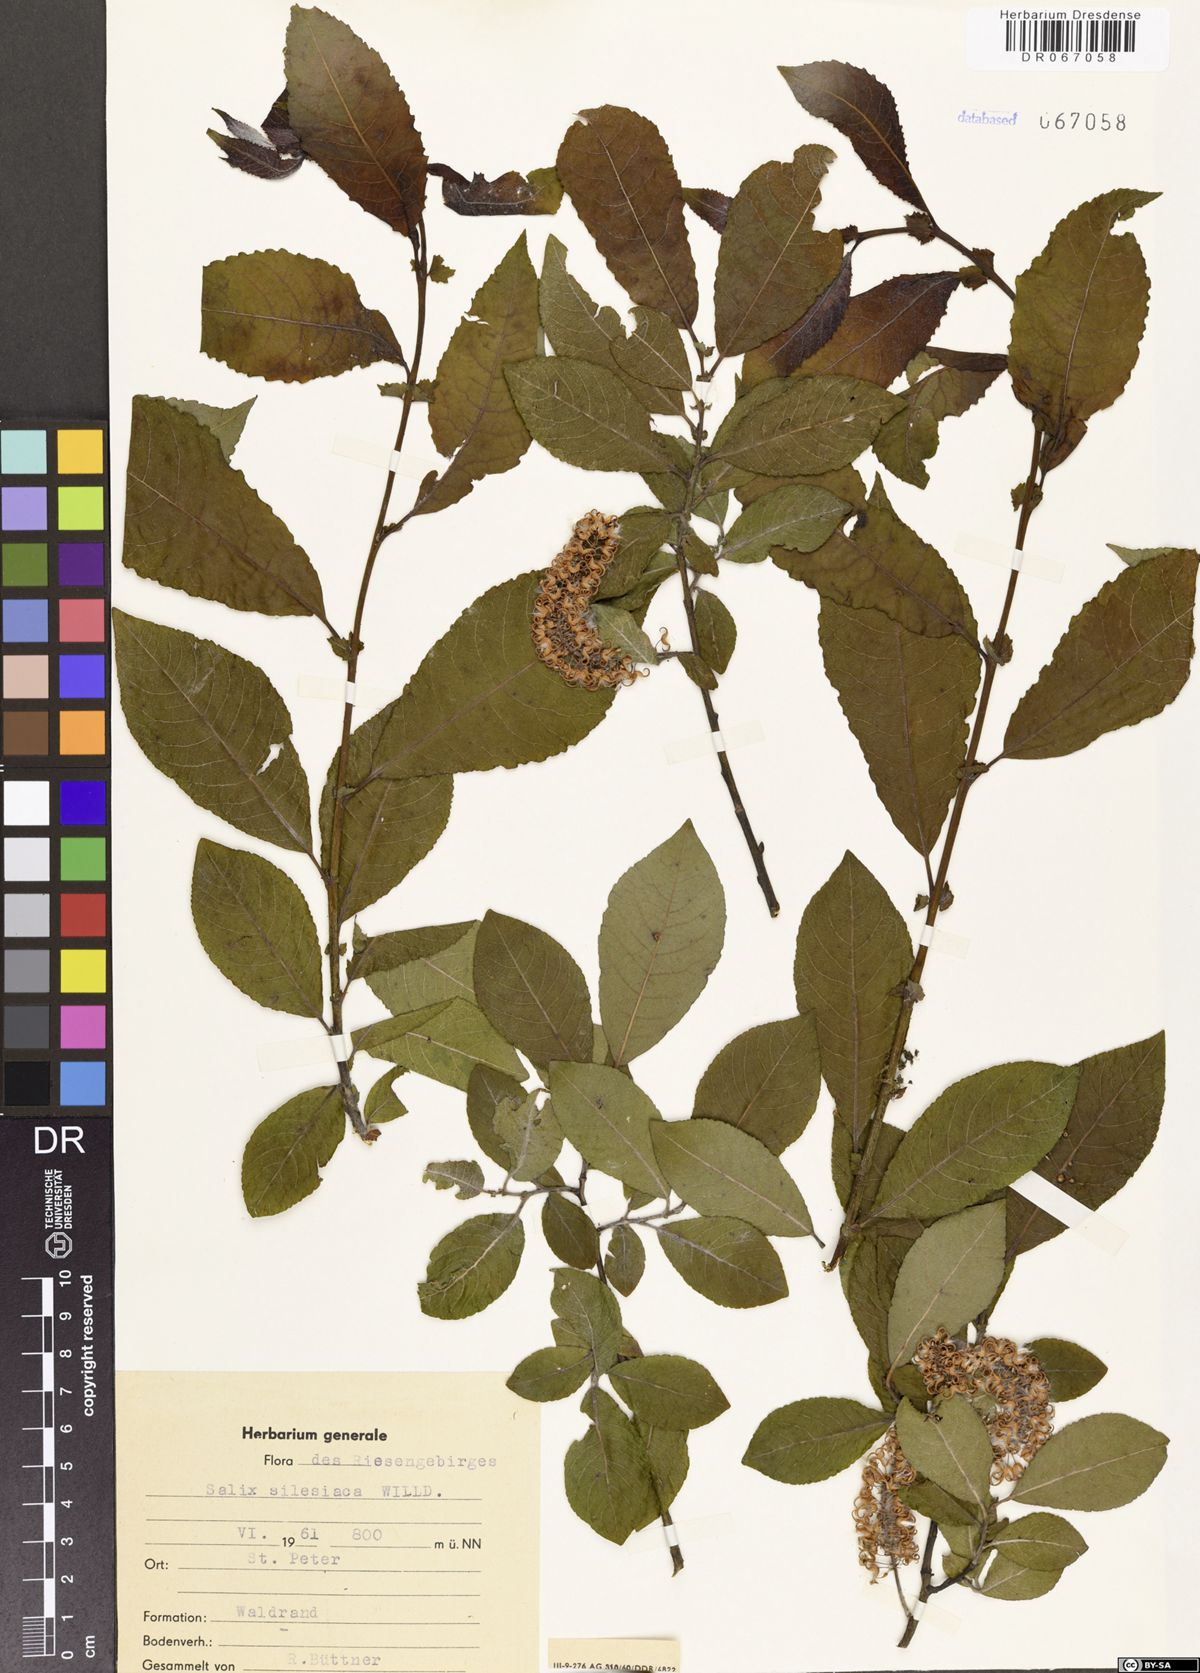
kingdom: Plantae
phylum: Tracheophyta
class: Magnoliopsida
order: Malpighiales
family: Salicaceae
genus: Salix
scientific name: Salix silesiaca
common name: Silesian willow
